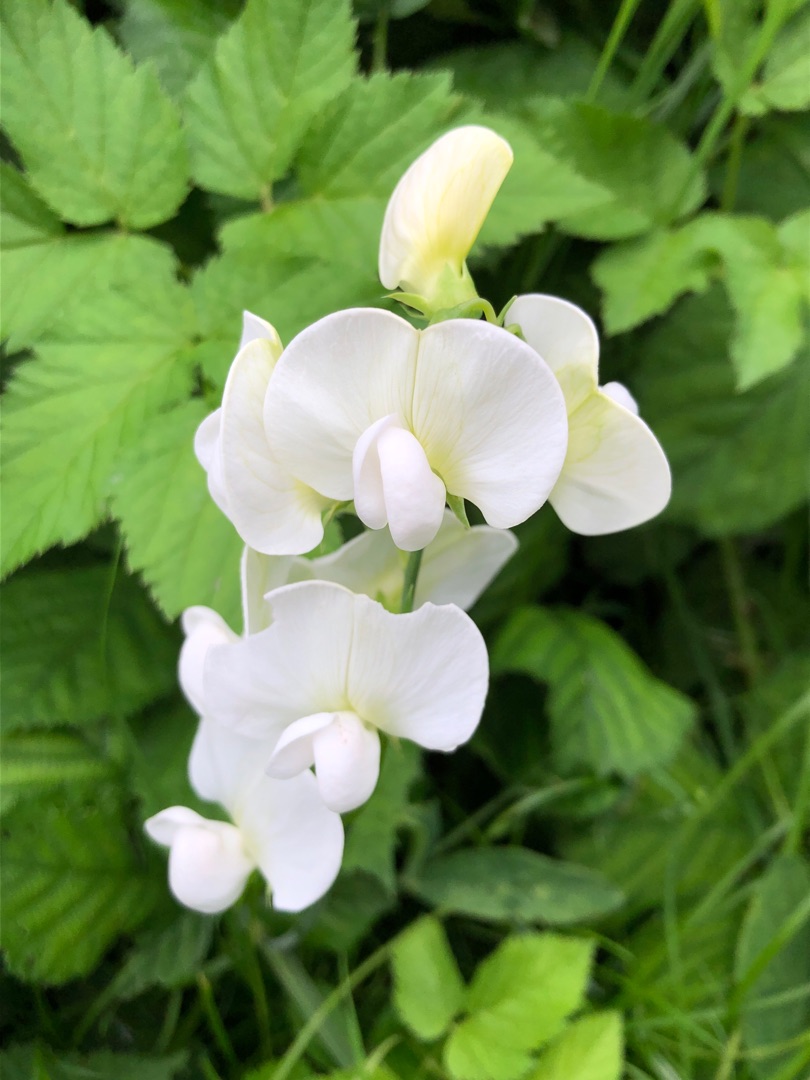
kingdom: Plantae
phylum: Tracheophyta
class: Magnoliopsida
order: Fabales
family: Fabaceae
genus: Lathyrus
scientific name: Lathyrus latifolius
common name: Flerårig ærteblomst
